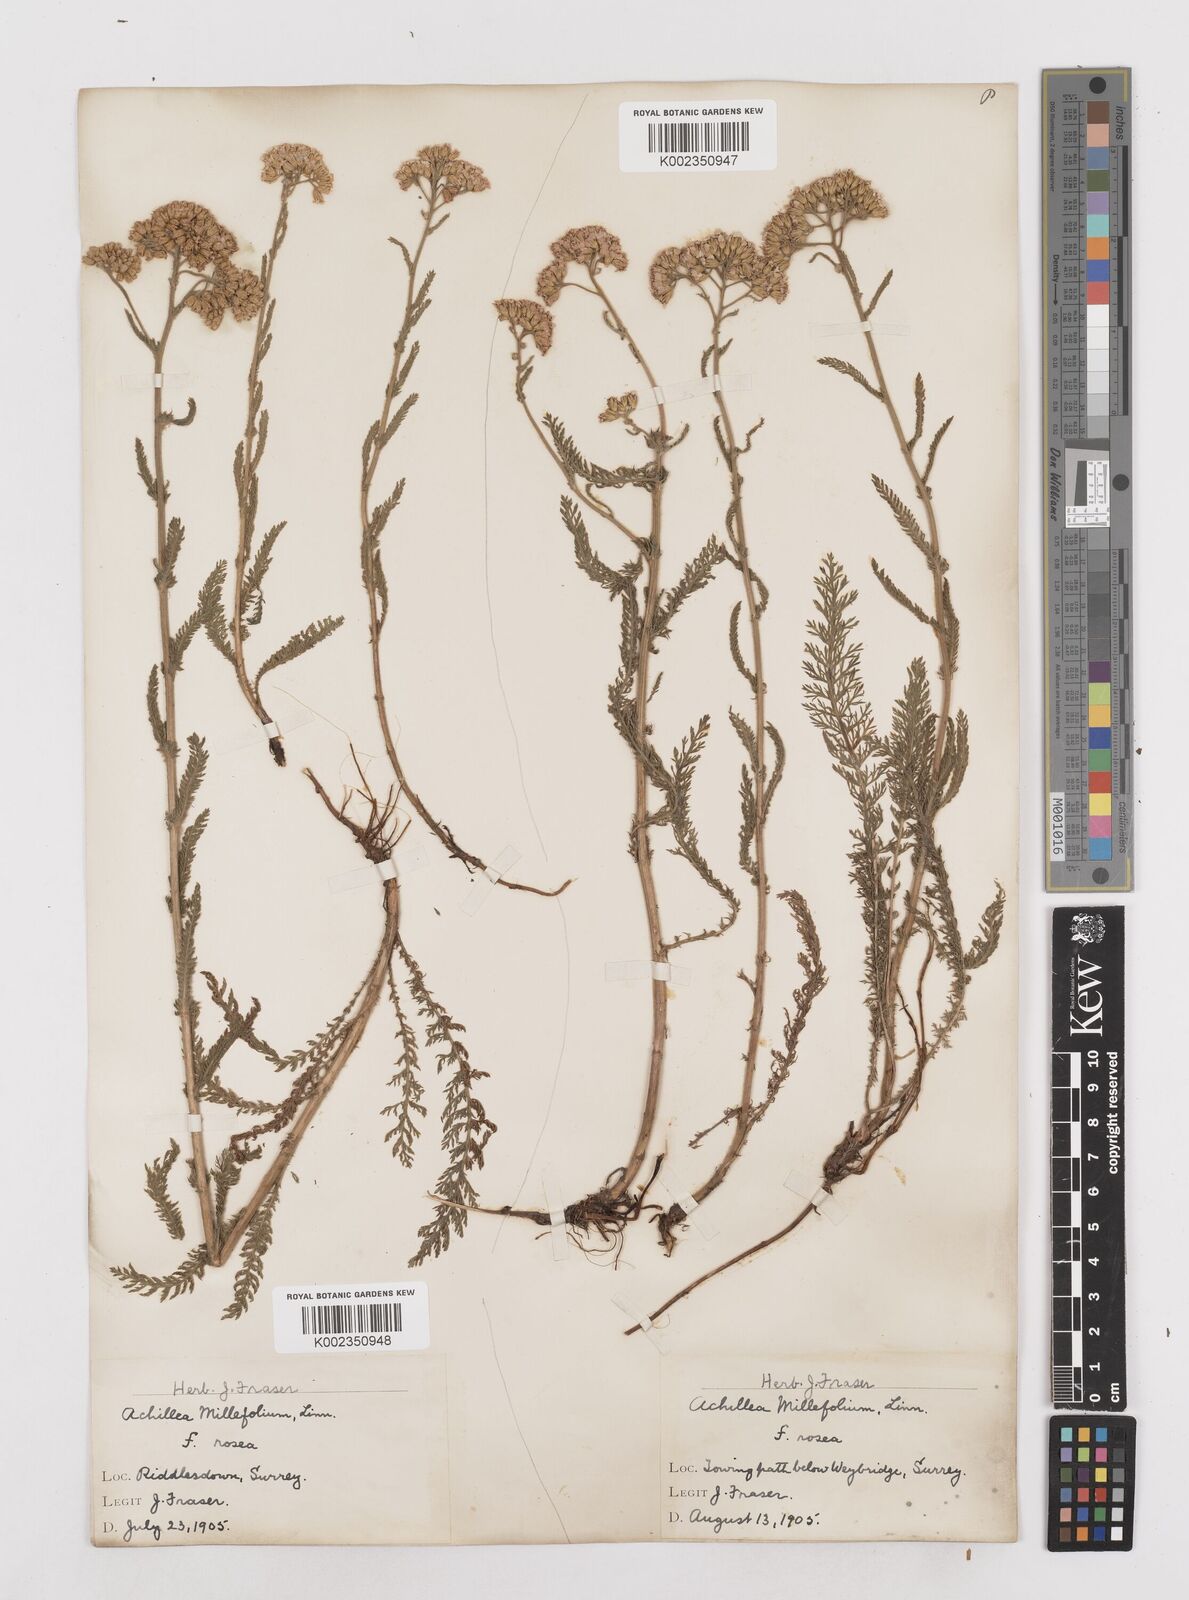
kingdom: Plantae
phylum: Tracheophyta
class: Magnoliopsida
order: Asterales
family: Asteraceae
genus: Achillea
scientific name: Achillea millefolium
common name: Yarrow
